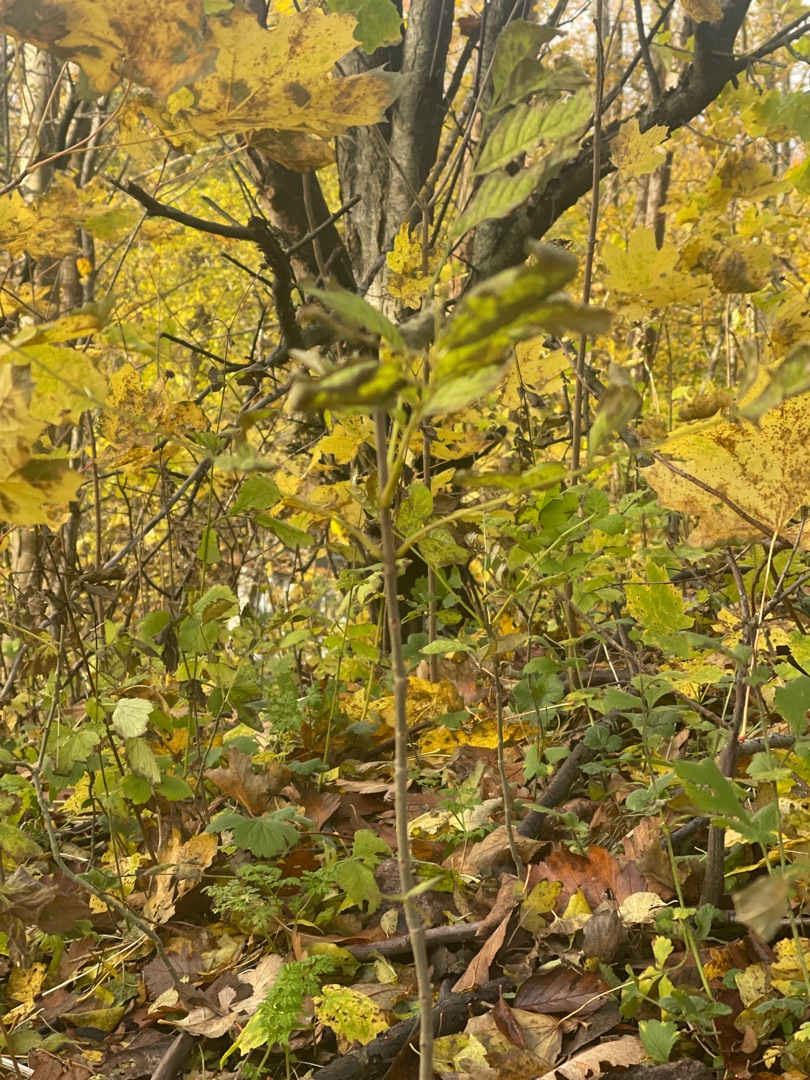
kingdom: Plantae
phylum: Tracheophyta
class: Magnoliopsida
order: Lamiales
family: Oleaceae
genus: Fraxinus
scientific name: Fraxinus excelsior
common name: Ask
